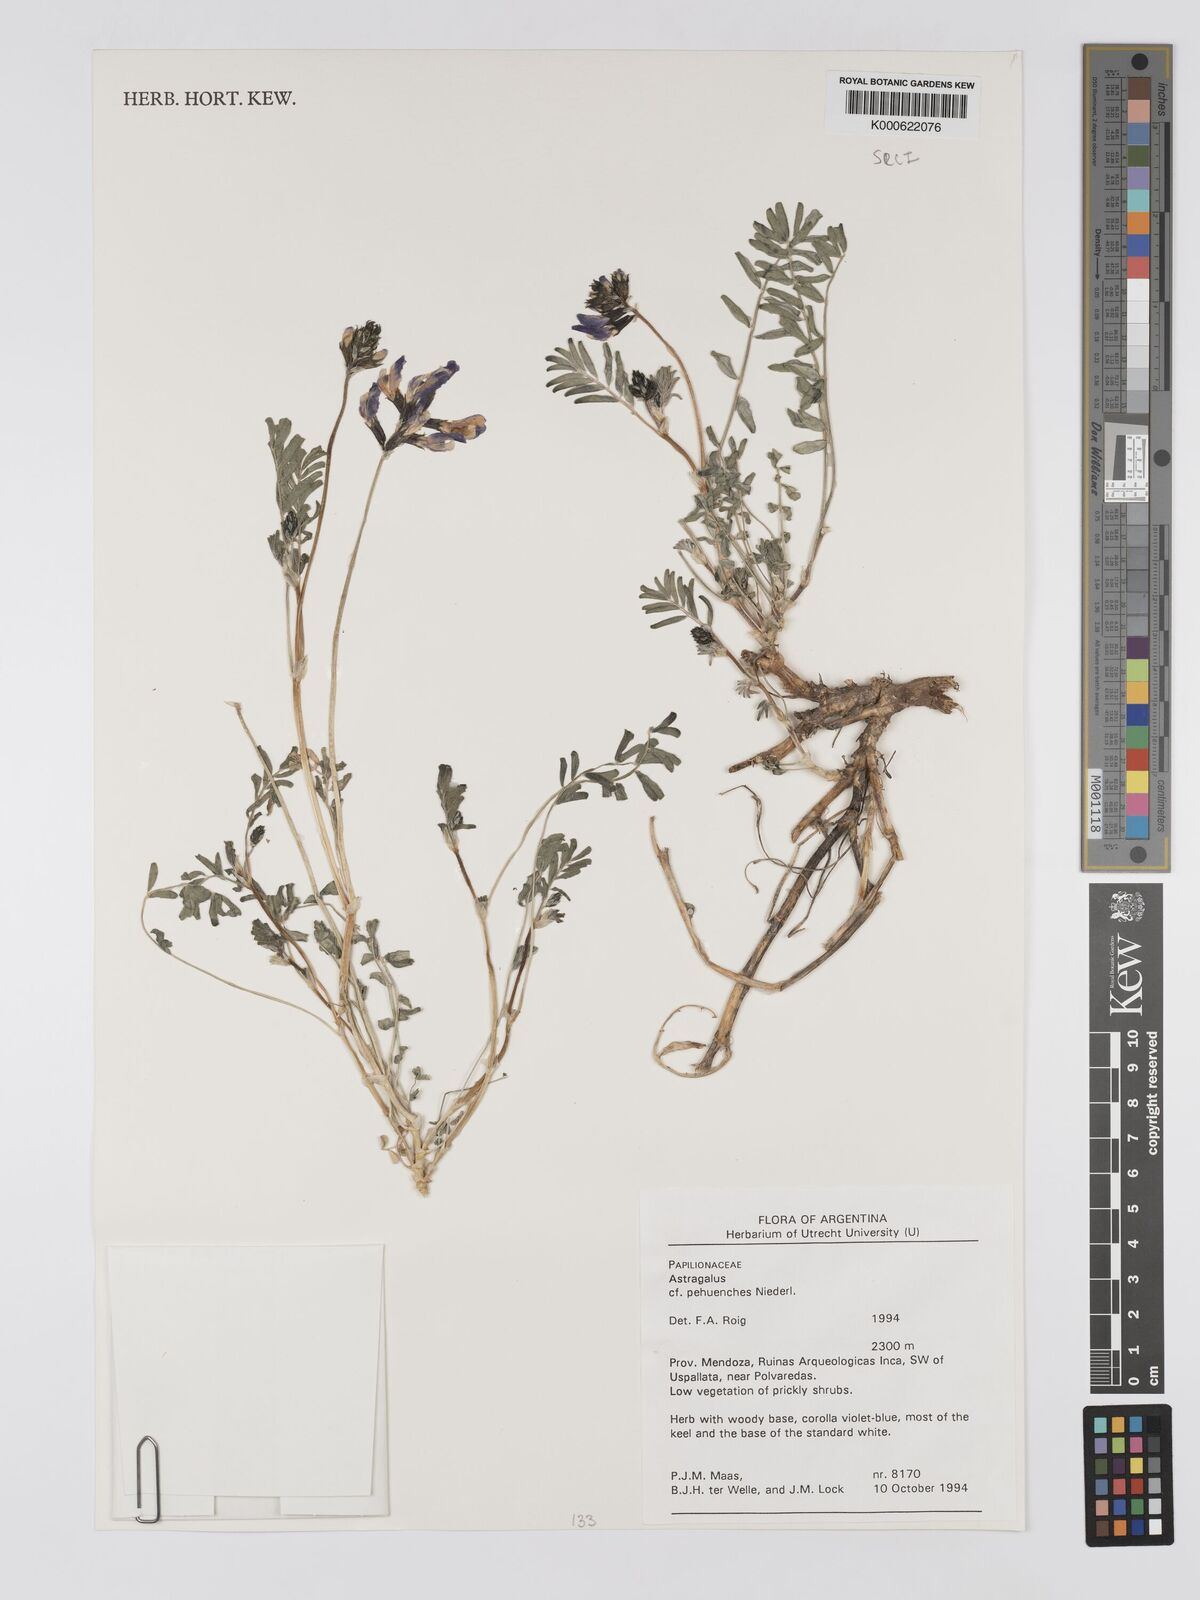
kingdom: Plantae
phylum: Tracheophyta
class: Magnoliopsida
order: Fabales
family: Fabaceae
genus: Astragalus
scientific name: Astragalus pehuenches
